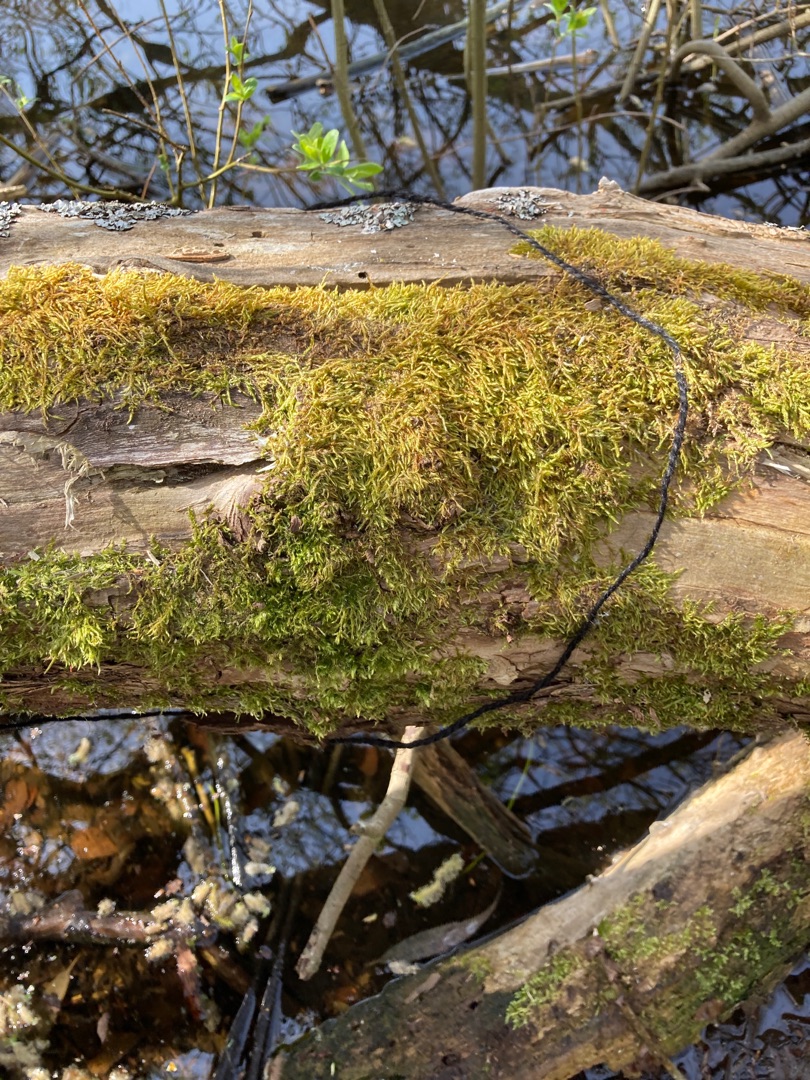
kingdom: Plantae
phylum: Bryophyta
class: Bryopsida
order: Hypnales
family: Hypnaceae
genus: Hypnum
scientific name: Hypnum cupressiforme
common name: Almindelig cypresmos
